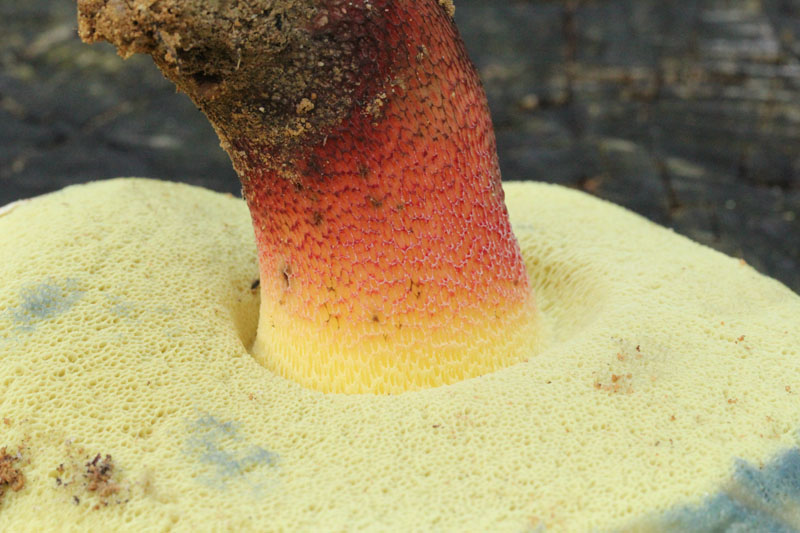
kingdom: Fungi
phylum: Basidiomycota
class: Agaricomycetes
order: Boletales
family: Boletaceae
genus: Caloboletus
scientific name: Caloboletus calopus
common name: skønfodet rørhat
